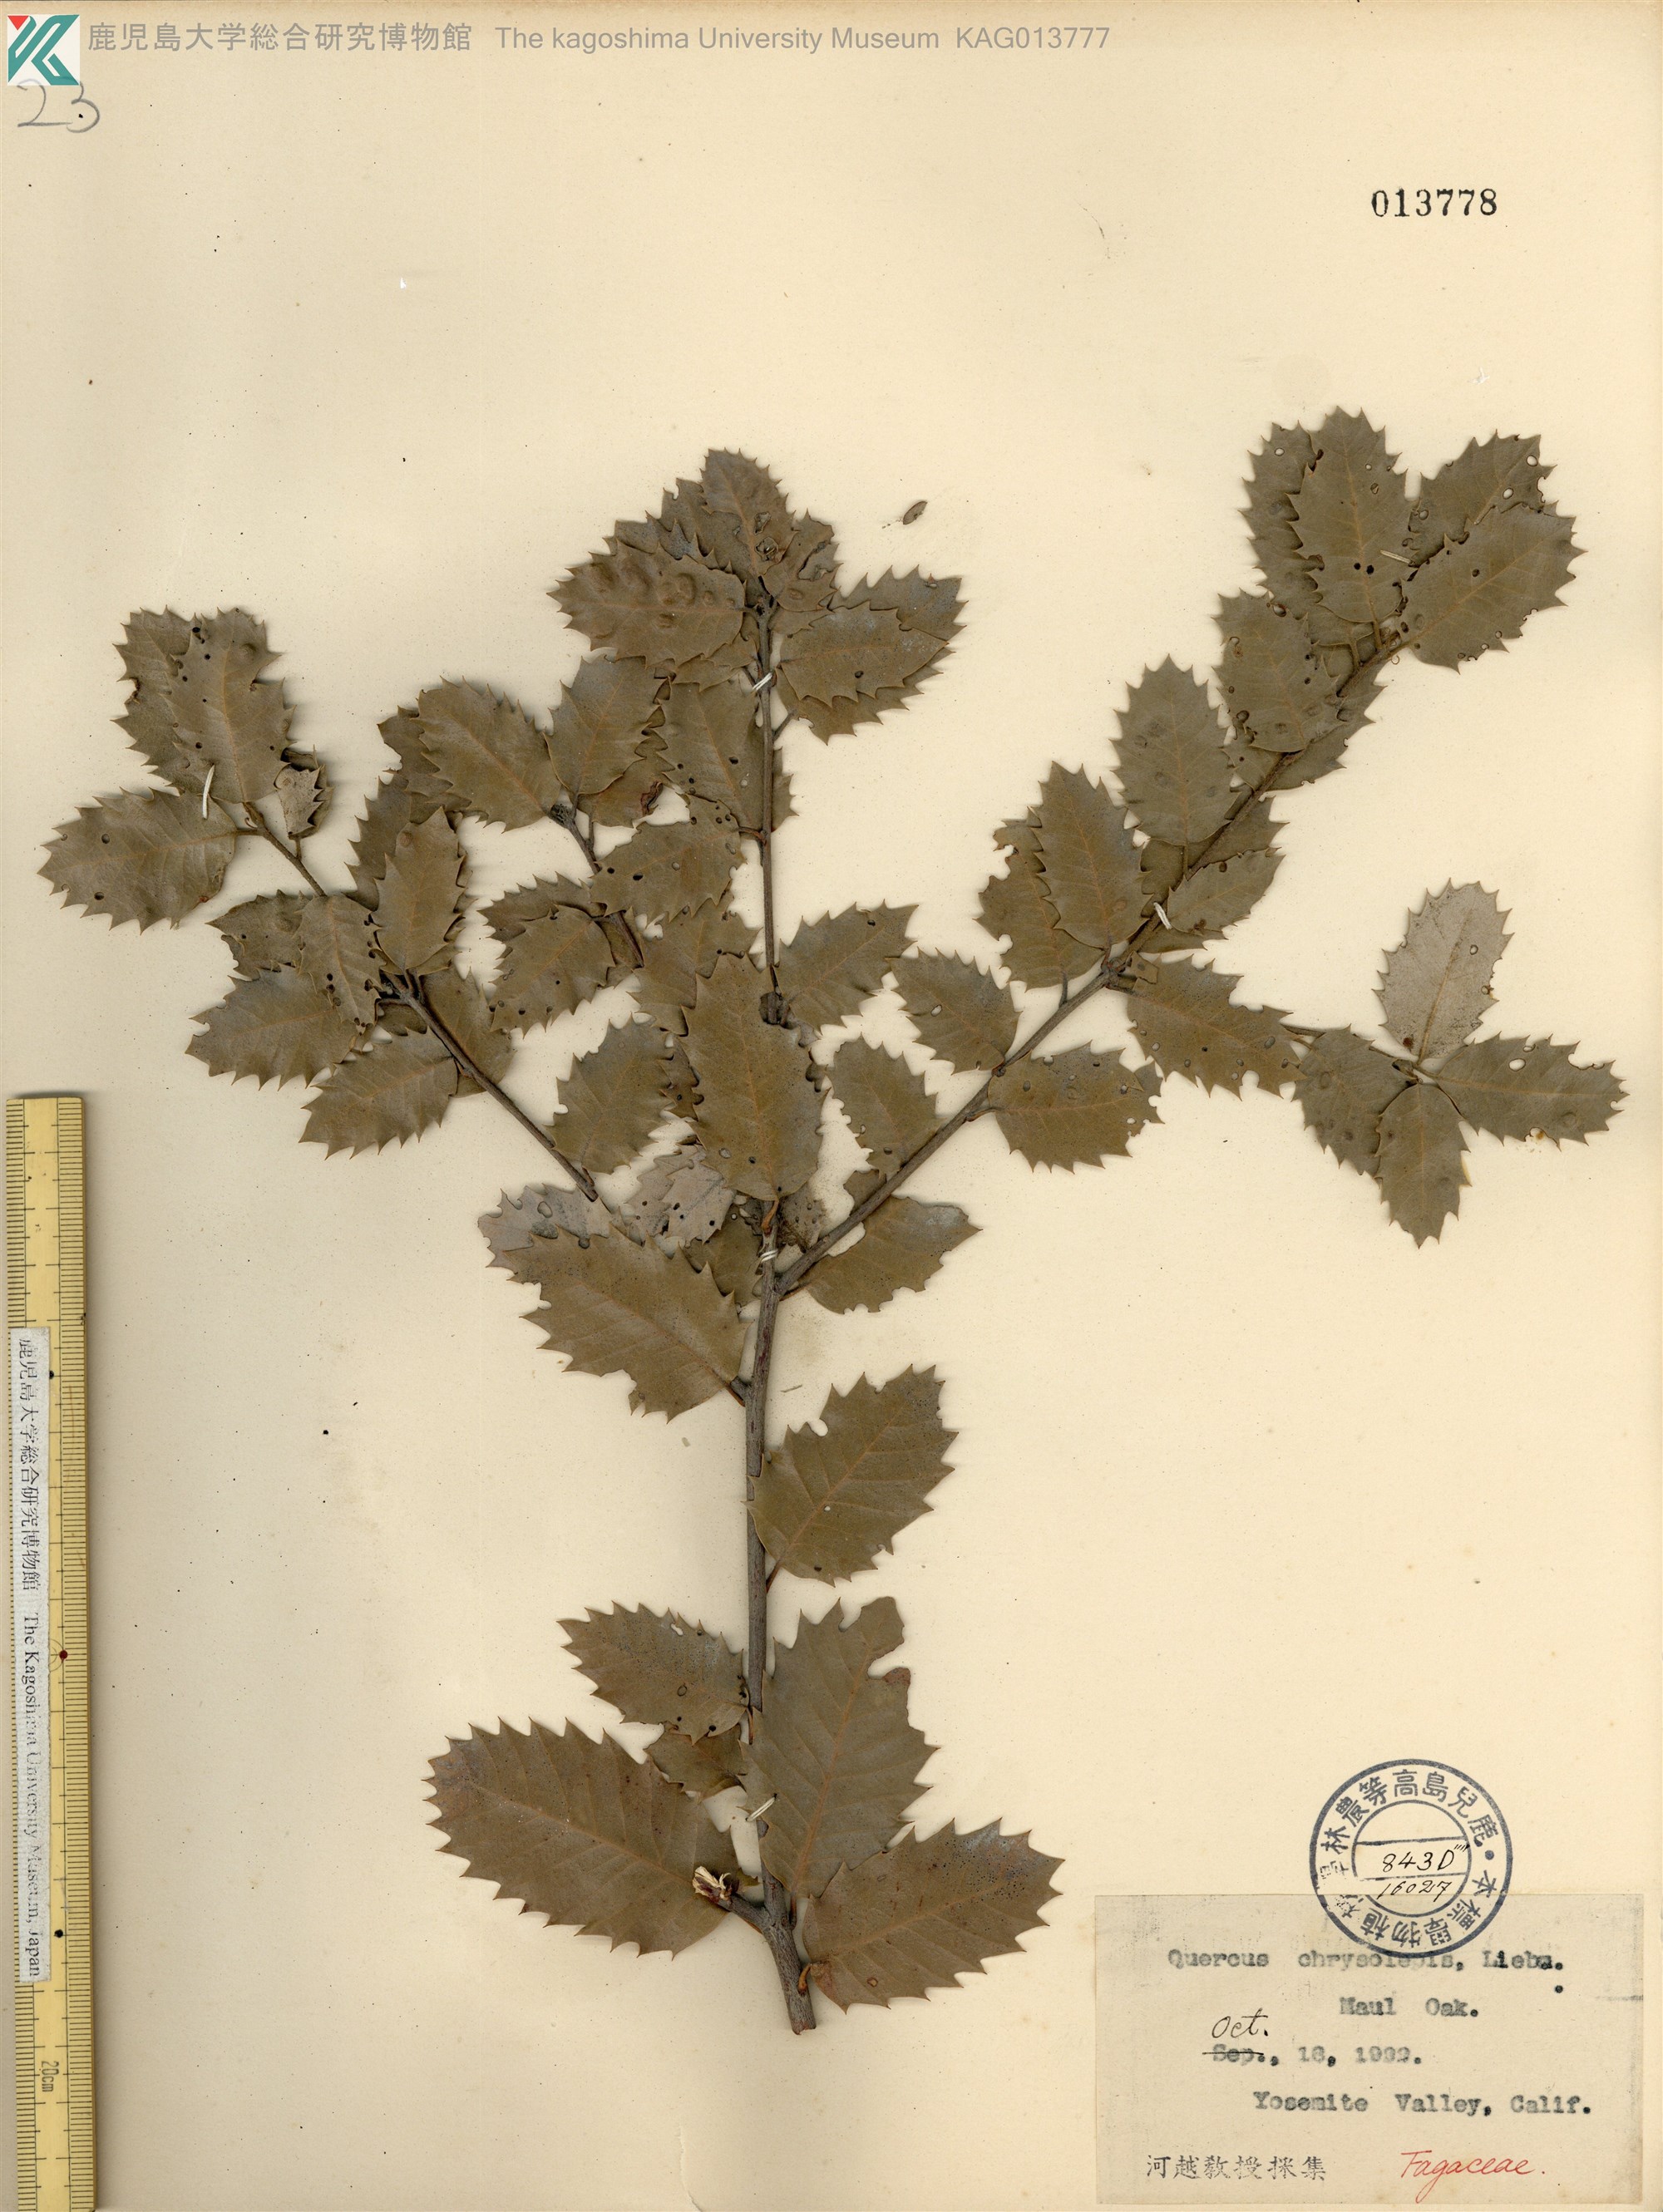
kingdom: Plantae
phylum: Tracheophyta
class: Magnoliopsida
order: Fagales
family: Fagaceae
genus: Quercus
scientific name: Quercus chrysolepis
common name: Canyon live oak
